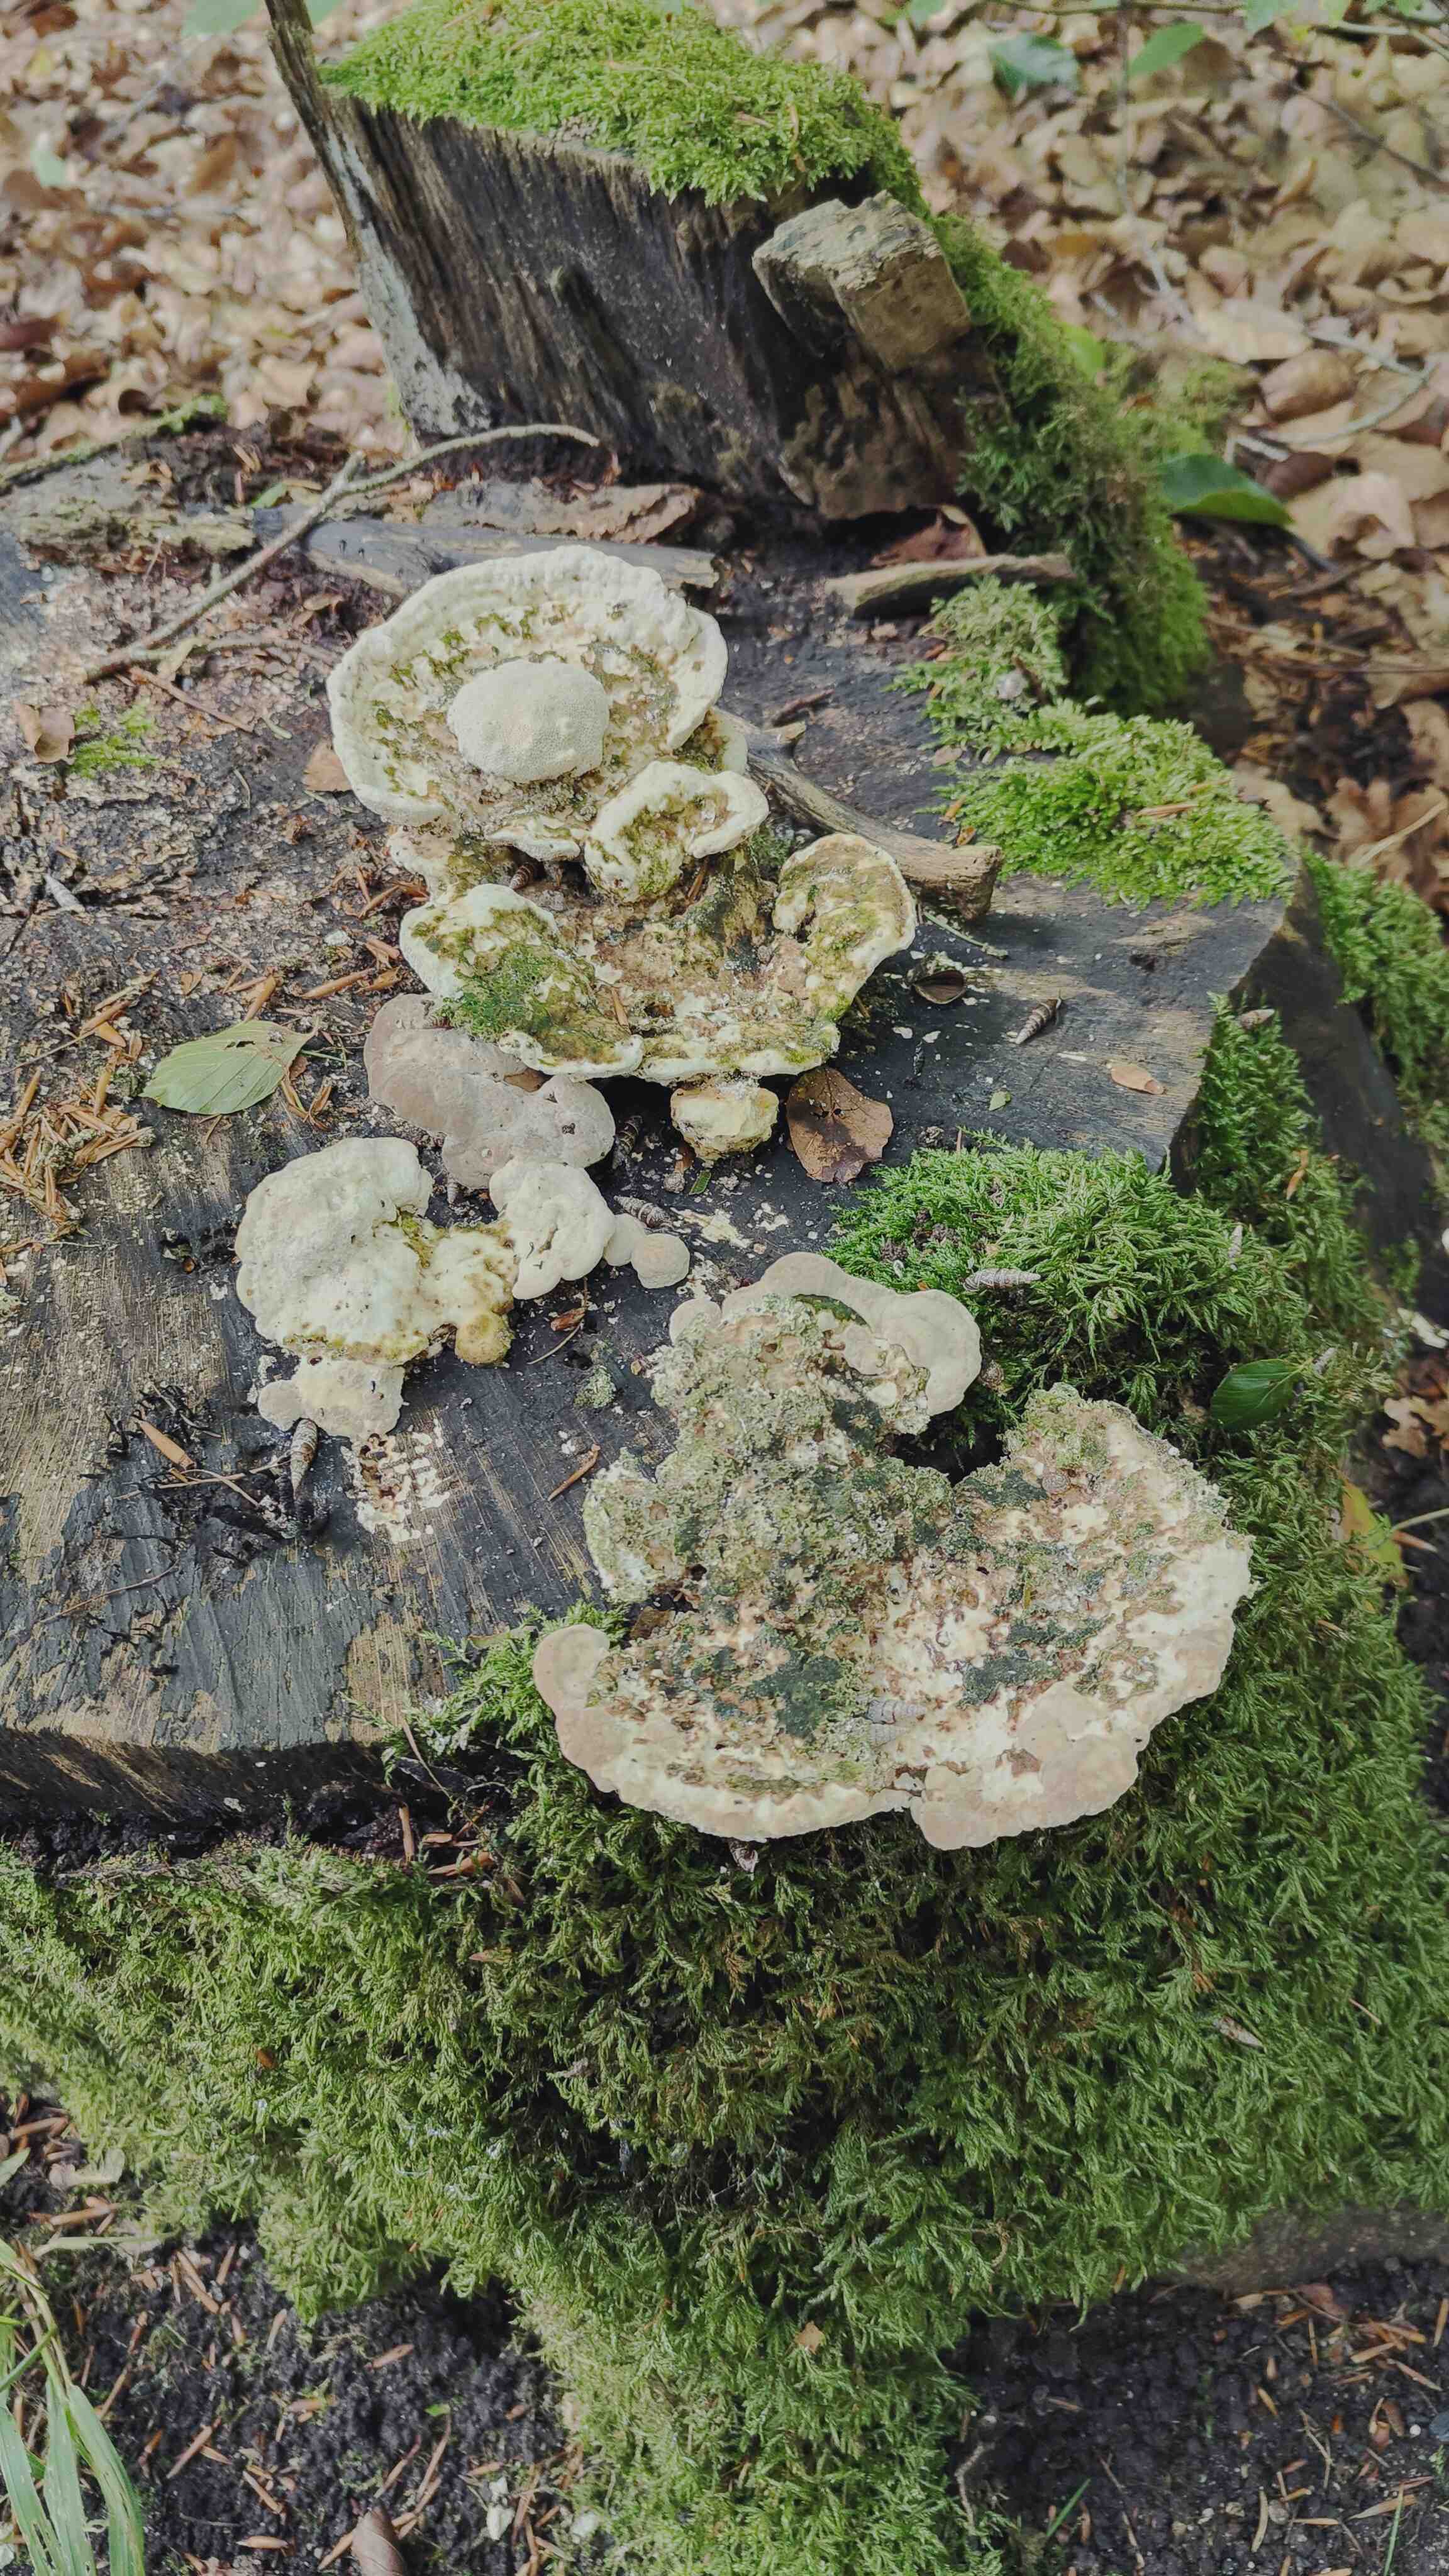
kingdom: Fungi
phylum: Basidiomycota
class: Agaricomycetes
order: Polyporales
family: Polyporaceae
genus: Trametes
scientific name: Trametes gibbosa
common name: puklet læderporesvamp
